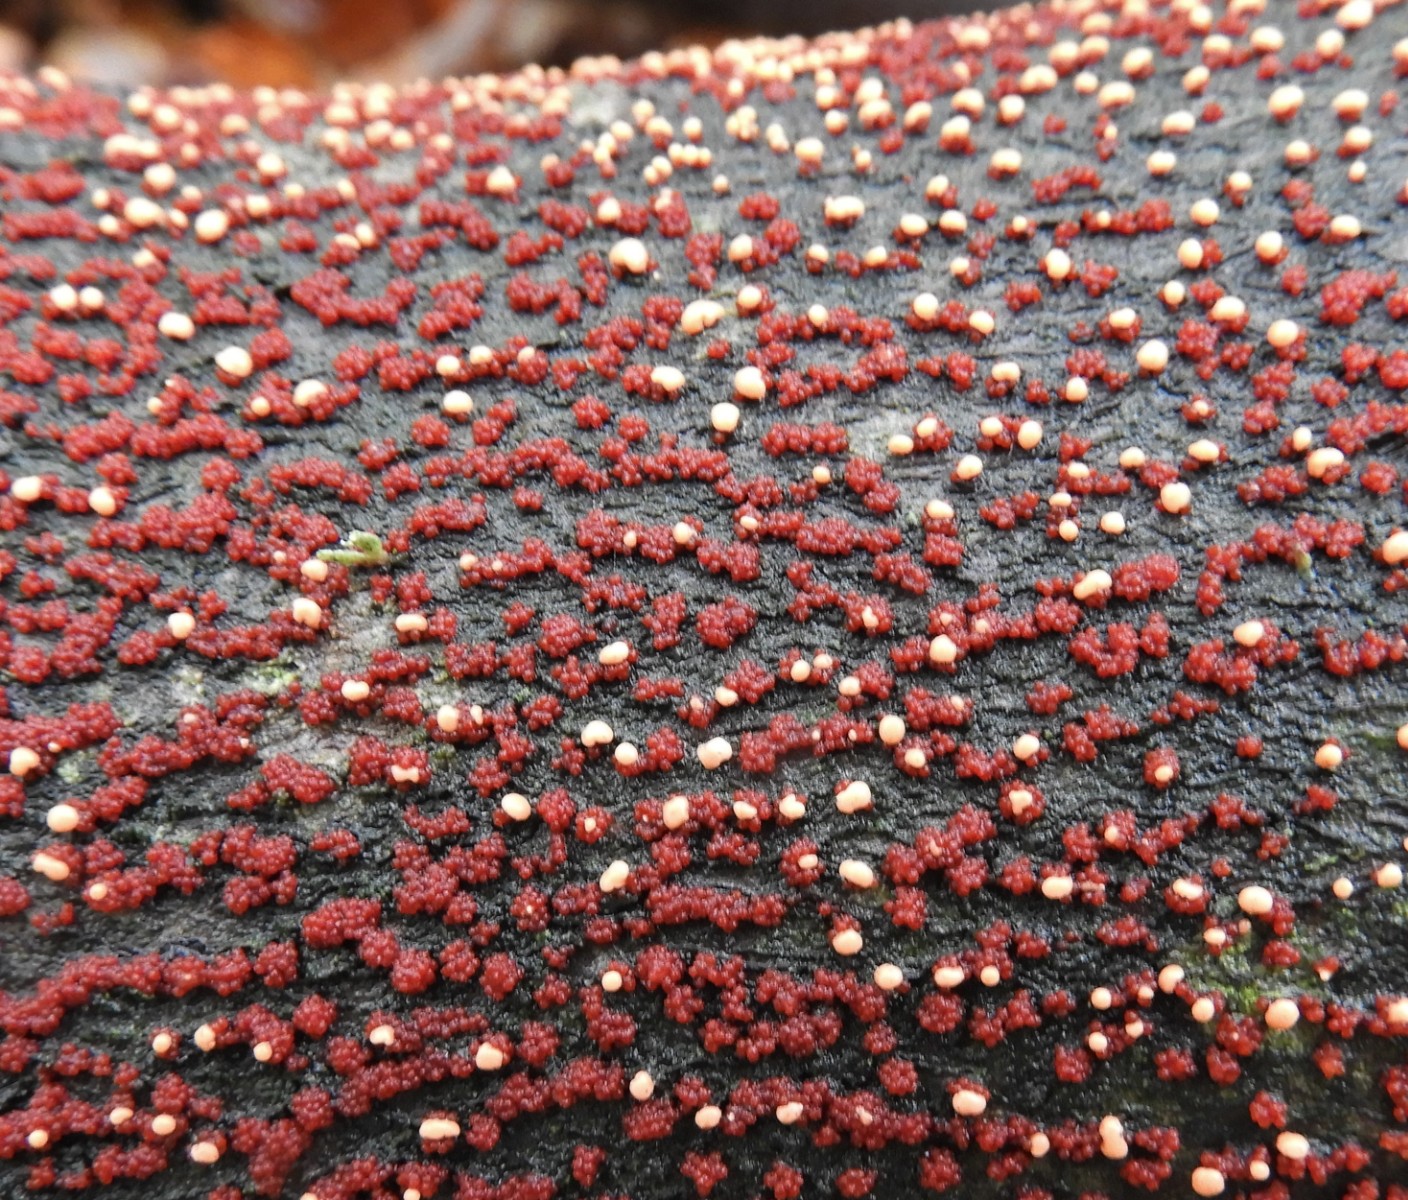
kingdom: Fungi
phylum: Ascomycota
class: Sordariomycetes
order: Hypocreales
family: Nectriaceae
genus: Nectria
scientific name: Nectria cinnabarina
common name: almindelig cinnobersvamp
